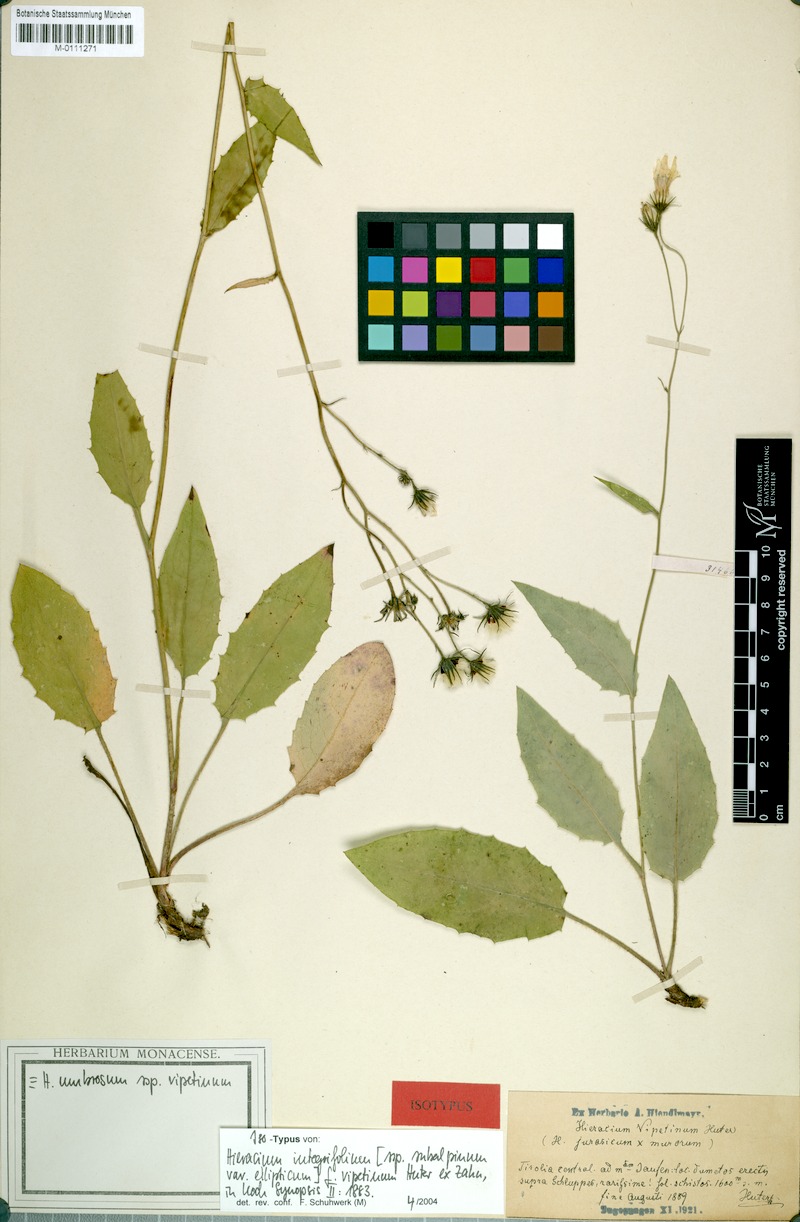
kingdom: Plantae
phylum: Tracheophyta
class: Magnoliopsida
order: Asterales
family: Asteraceae
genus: Hieracium
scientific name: Hieracium umbrosum
